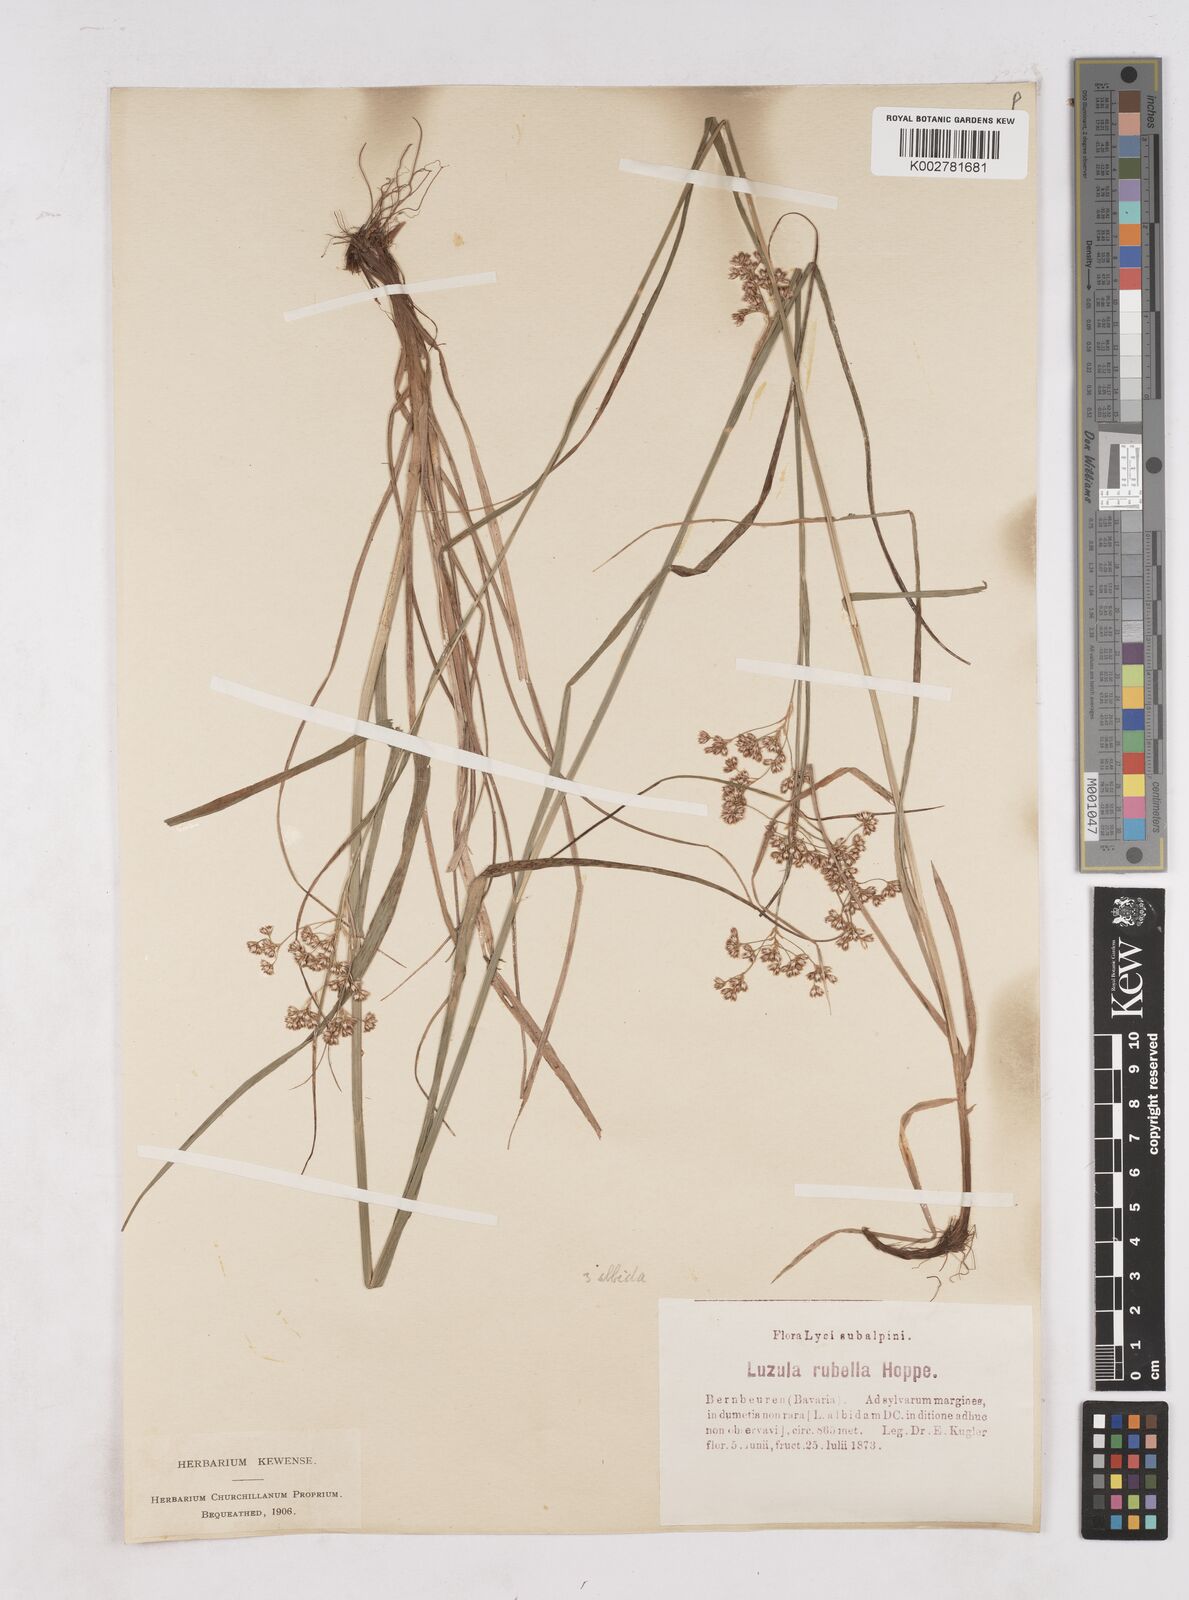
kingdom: Plantae
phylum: Tracheophyta
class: Liliopsida
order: Poales
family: Juncaceae
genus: Luzula
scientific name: Luzula luzuloides
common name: White wood-rush
